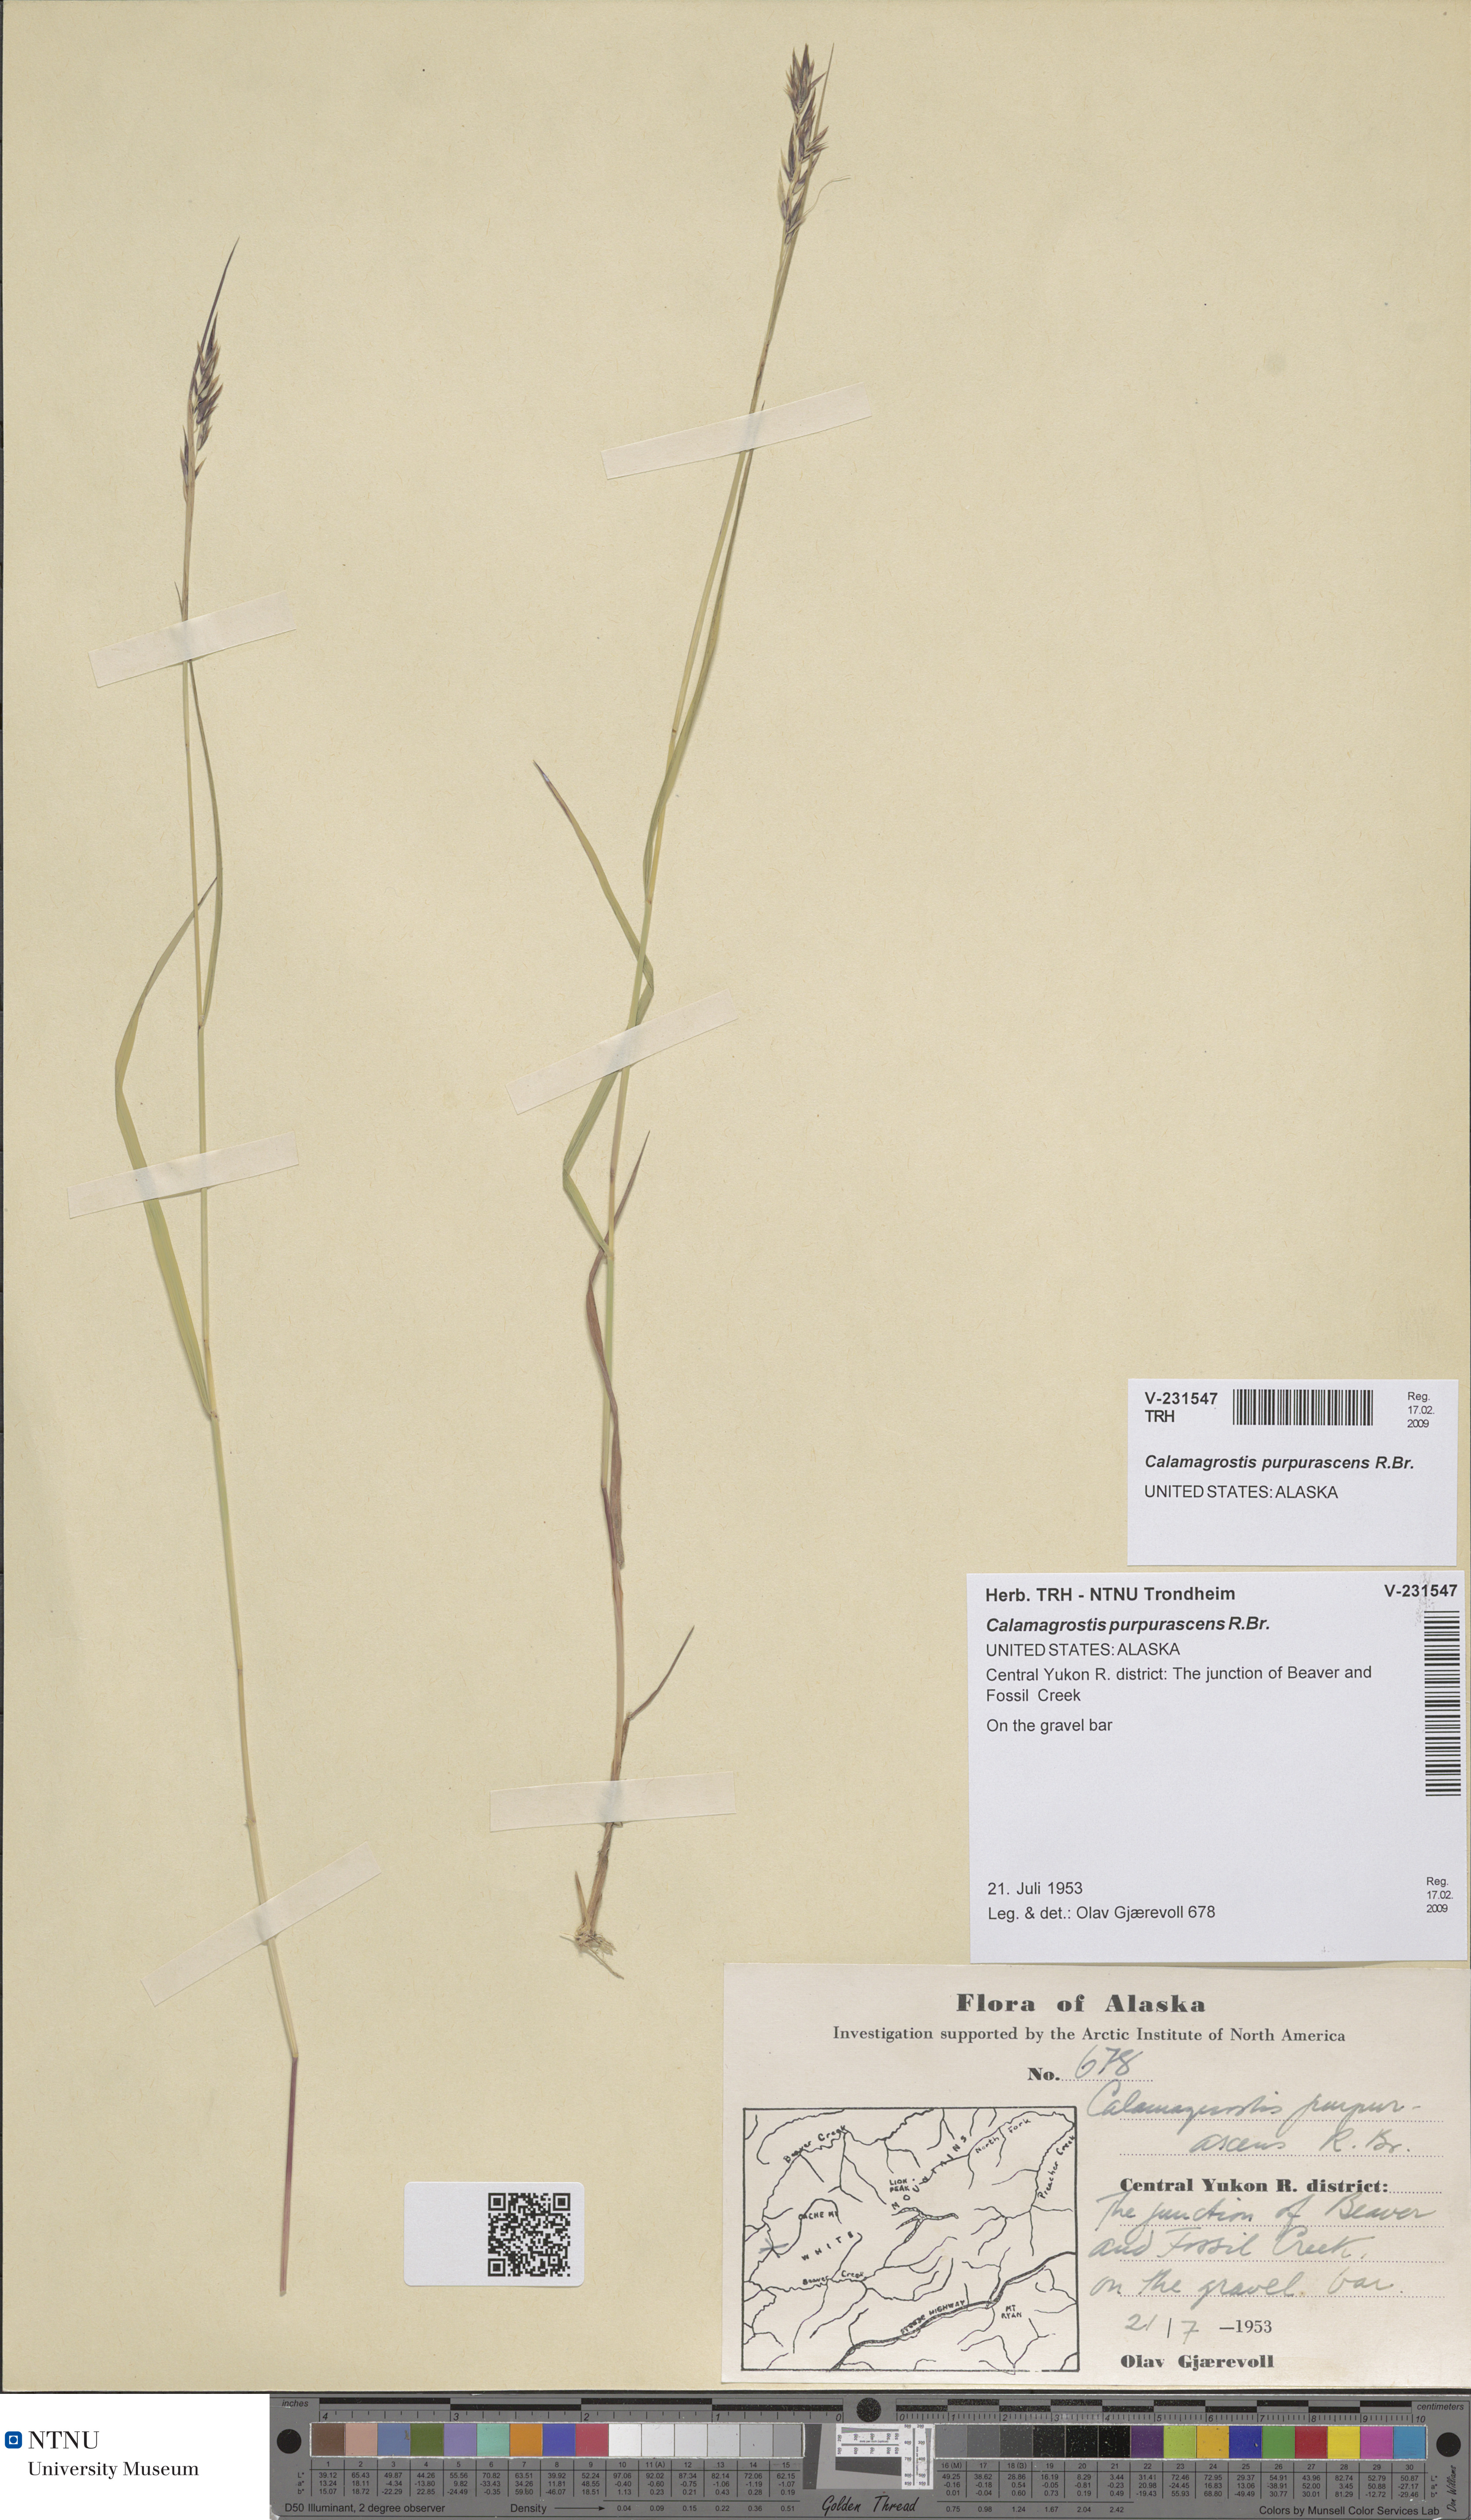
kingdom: Plantae
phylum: Tracheophyta
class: Liliopsida
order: Poales
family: Poaceae
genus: Calamagrostis
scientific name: Calamagrostis purpurascens
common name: Purple reedgrass
